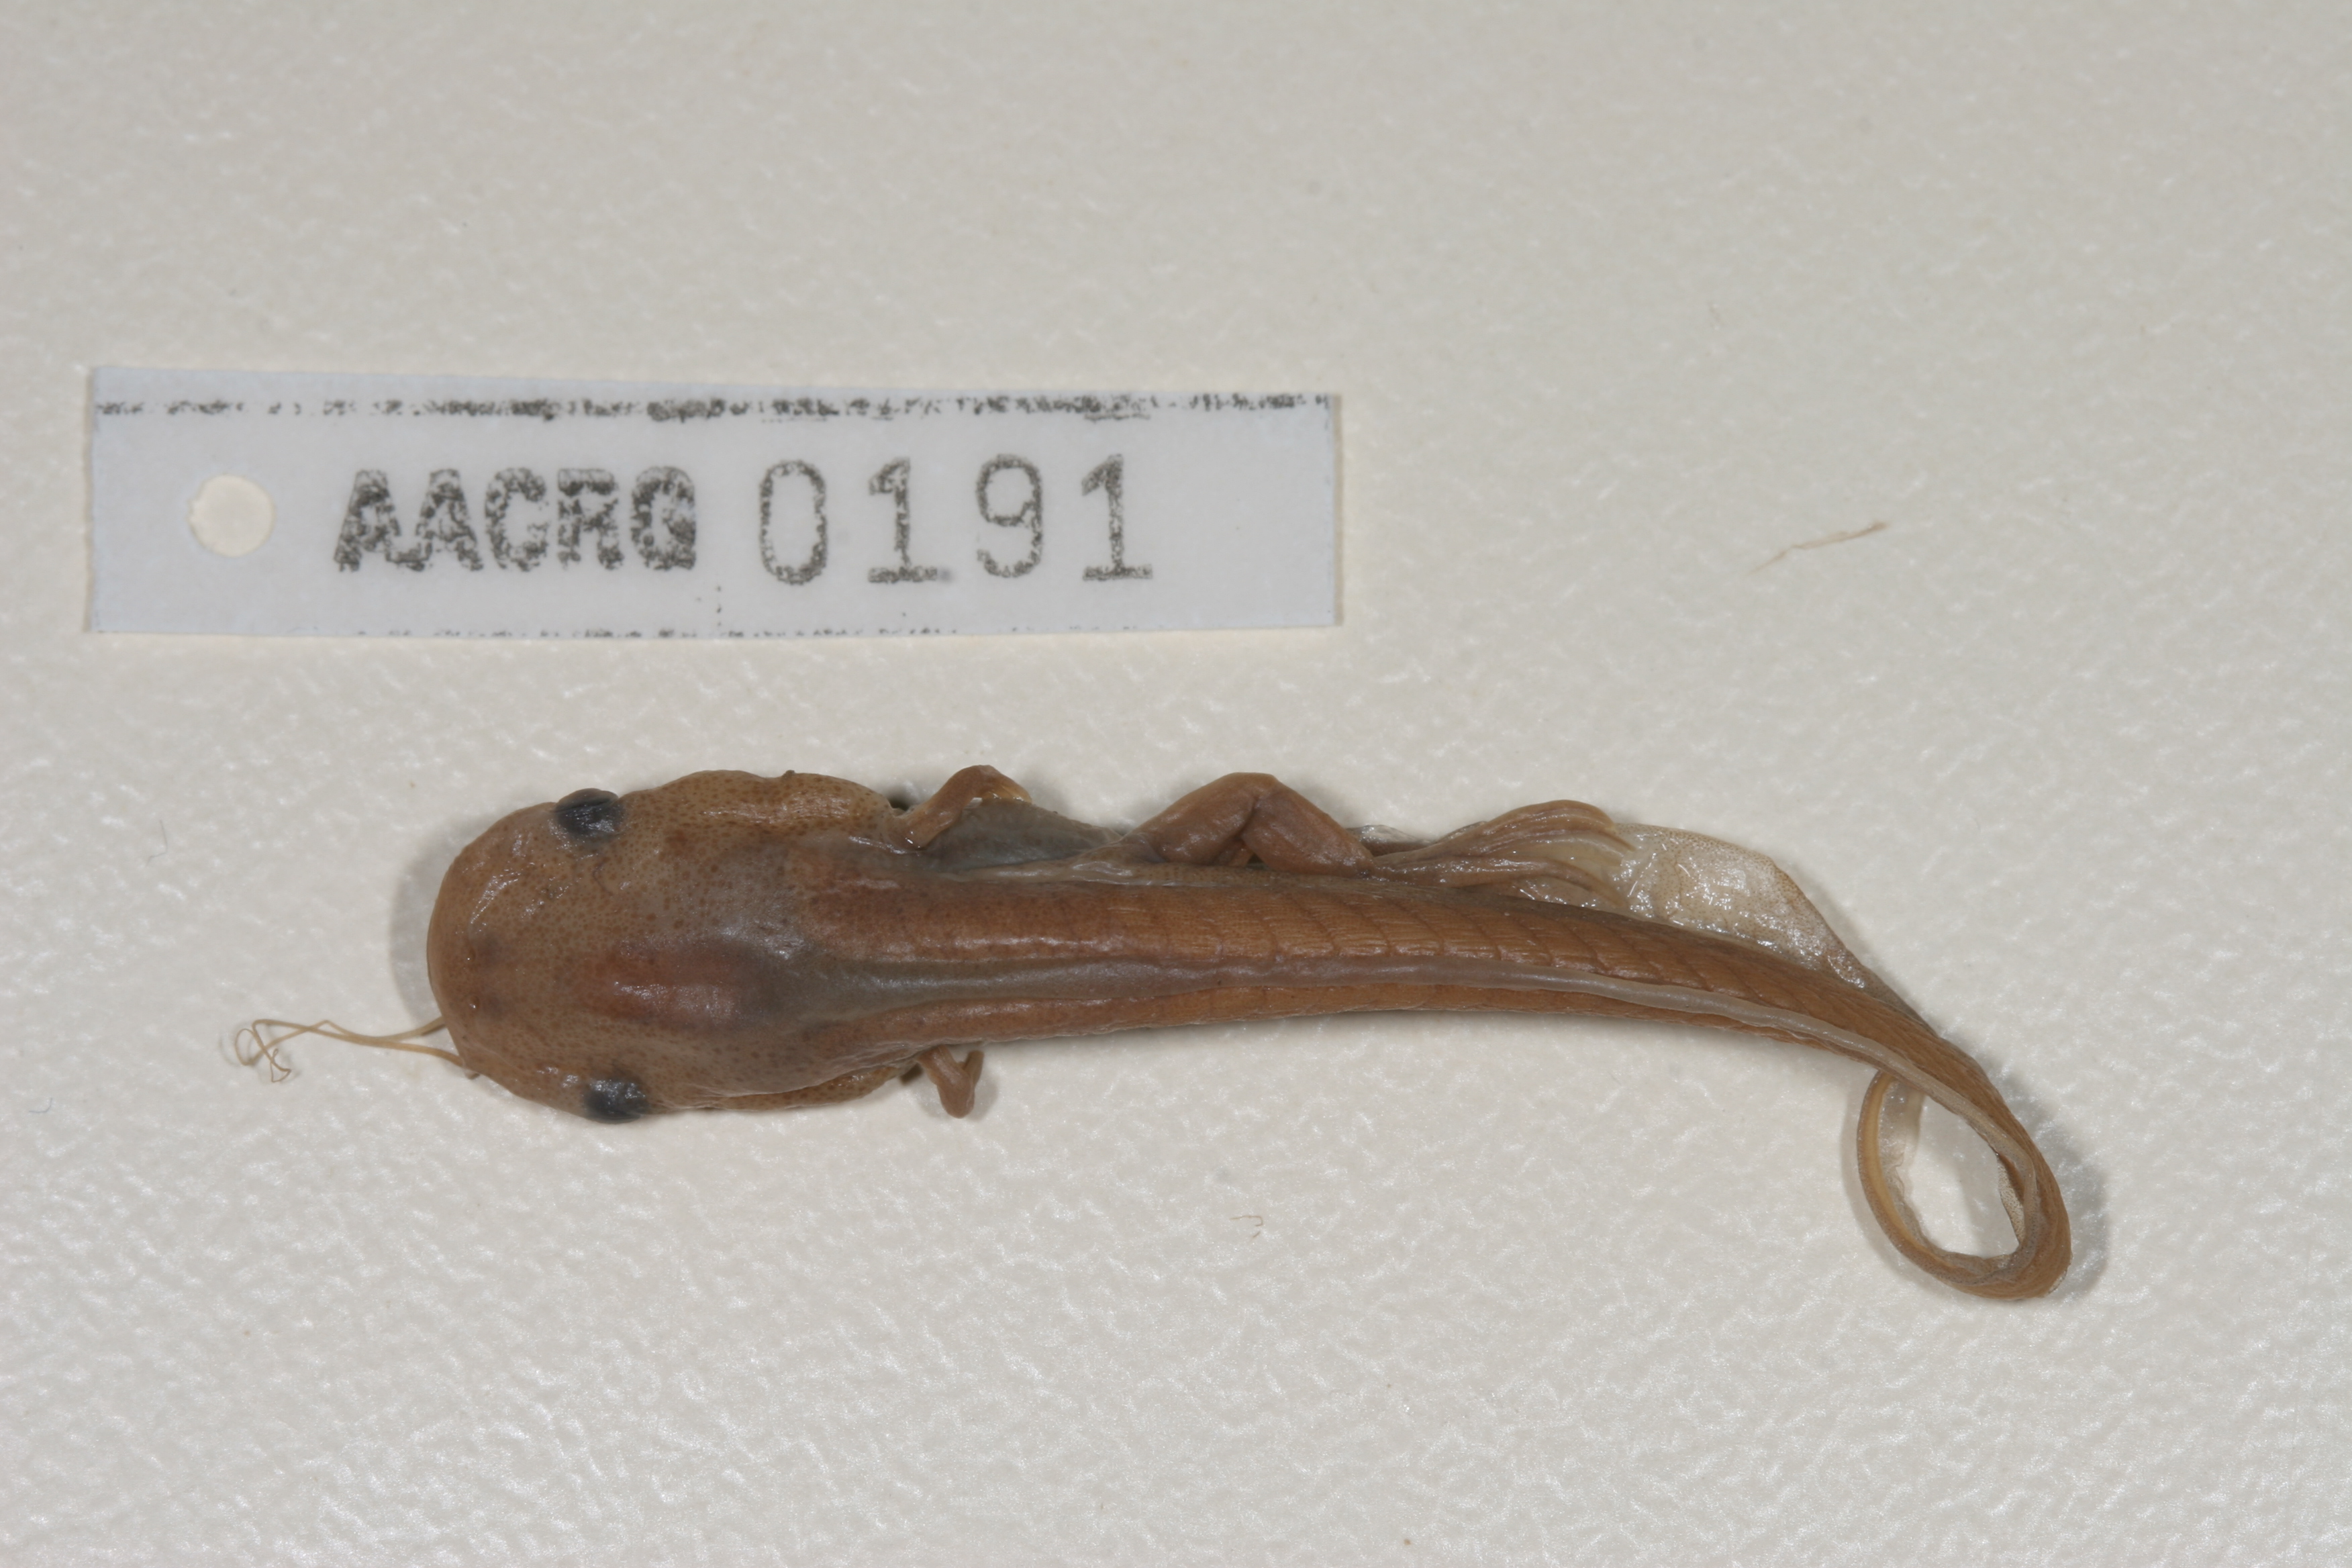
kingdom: Animalia
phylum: Chordata
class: Amphibia
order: Anura
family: Pipidae
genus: Xenopus
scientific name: Xenopus laevis
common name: African clawed frog
